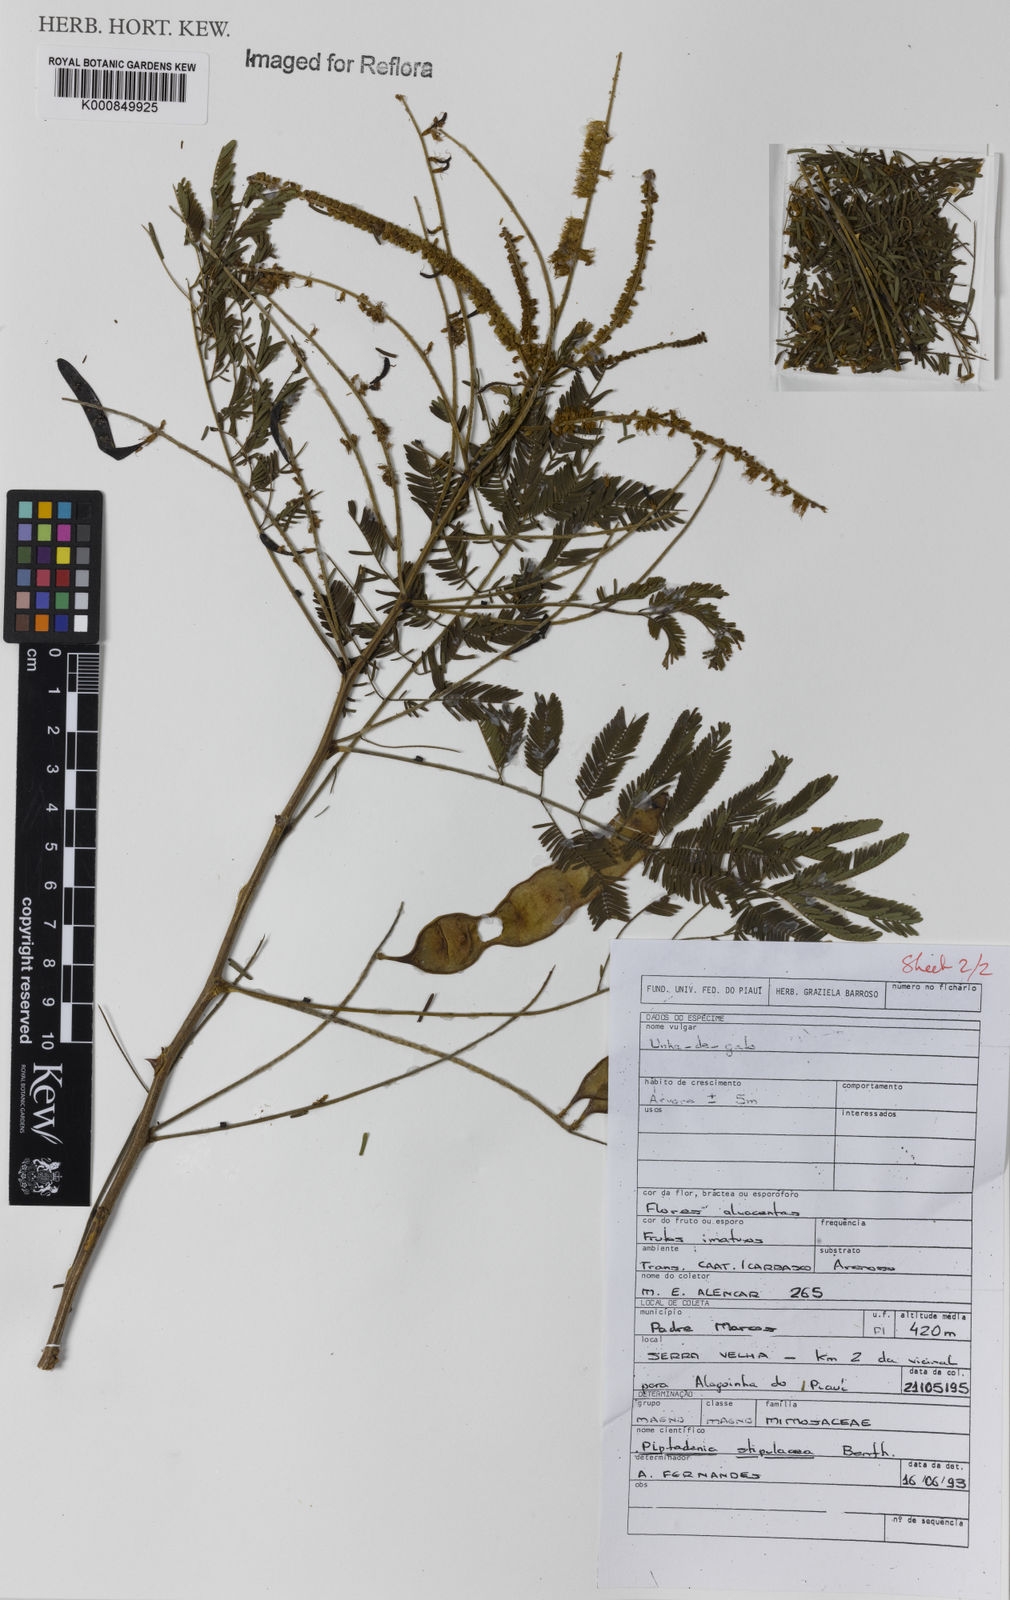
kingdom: Plantae
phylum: Tracheophyta
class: Magnoliopsida
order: Fabales
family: Fabaceae
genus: Piptadenia
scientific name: Piptadenia retusa
